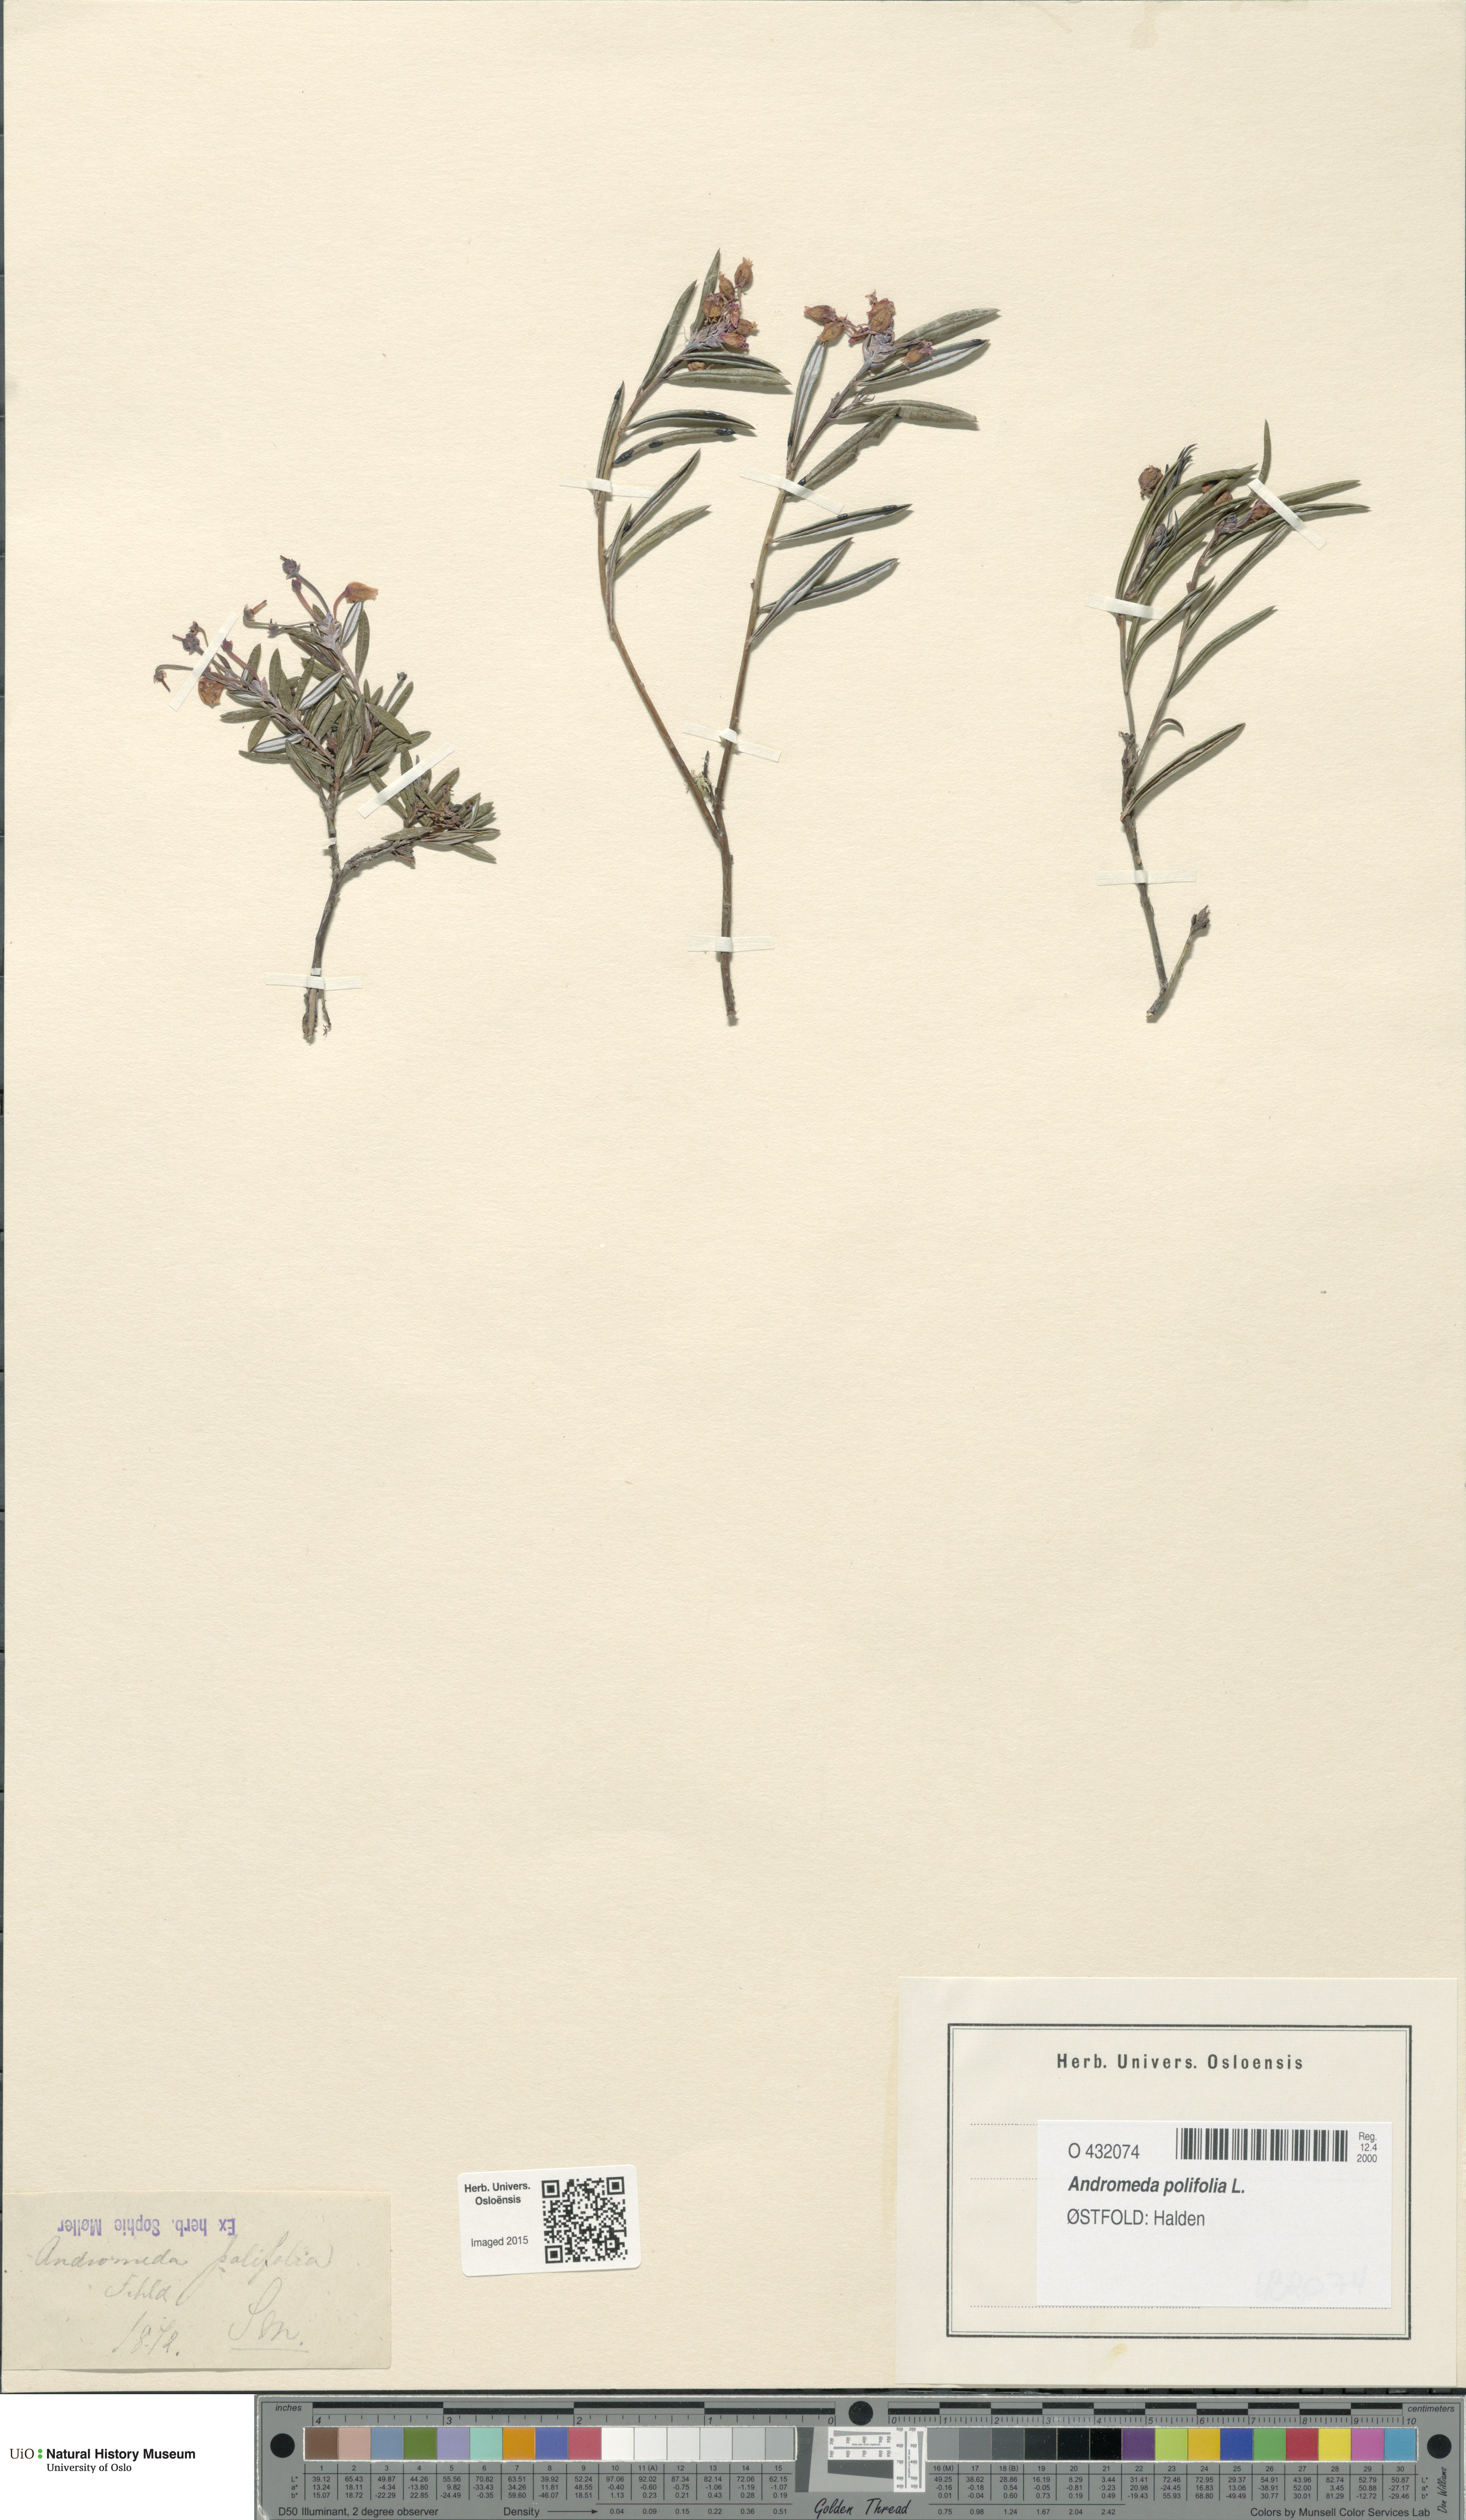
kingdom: Plantae
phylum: Tracheophyta
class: Magnoliopsida
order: Ericales
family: Ericaceae
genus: Andromeda
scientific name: Andromeda polifolia
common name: Bog-rosemary
